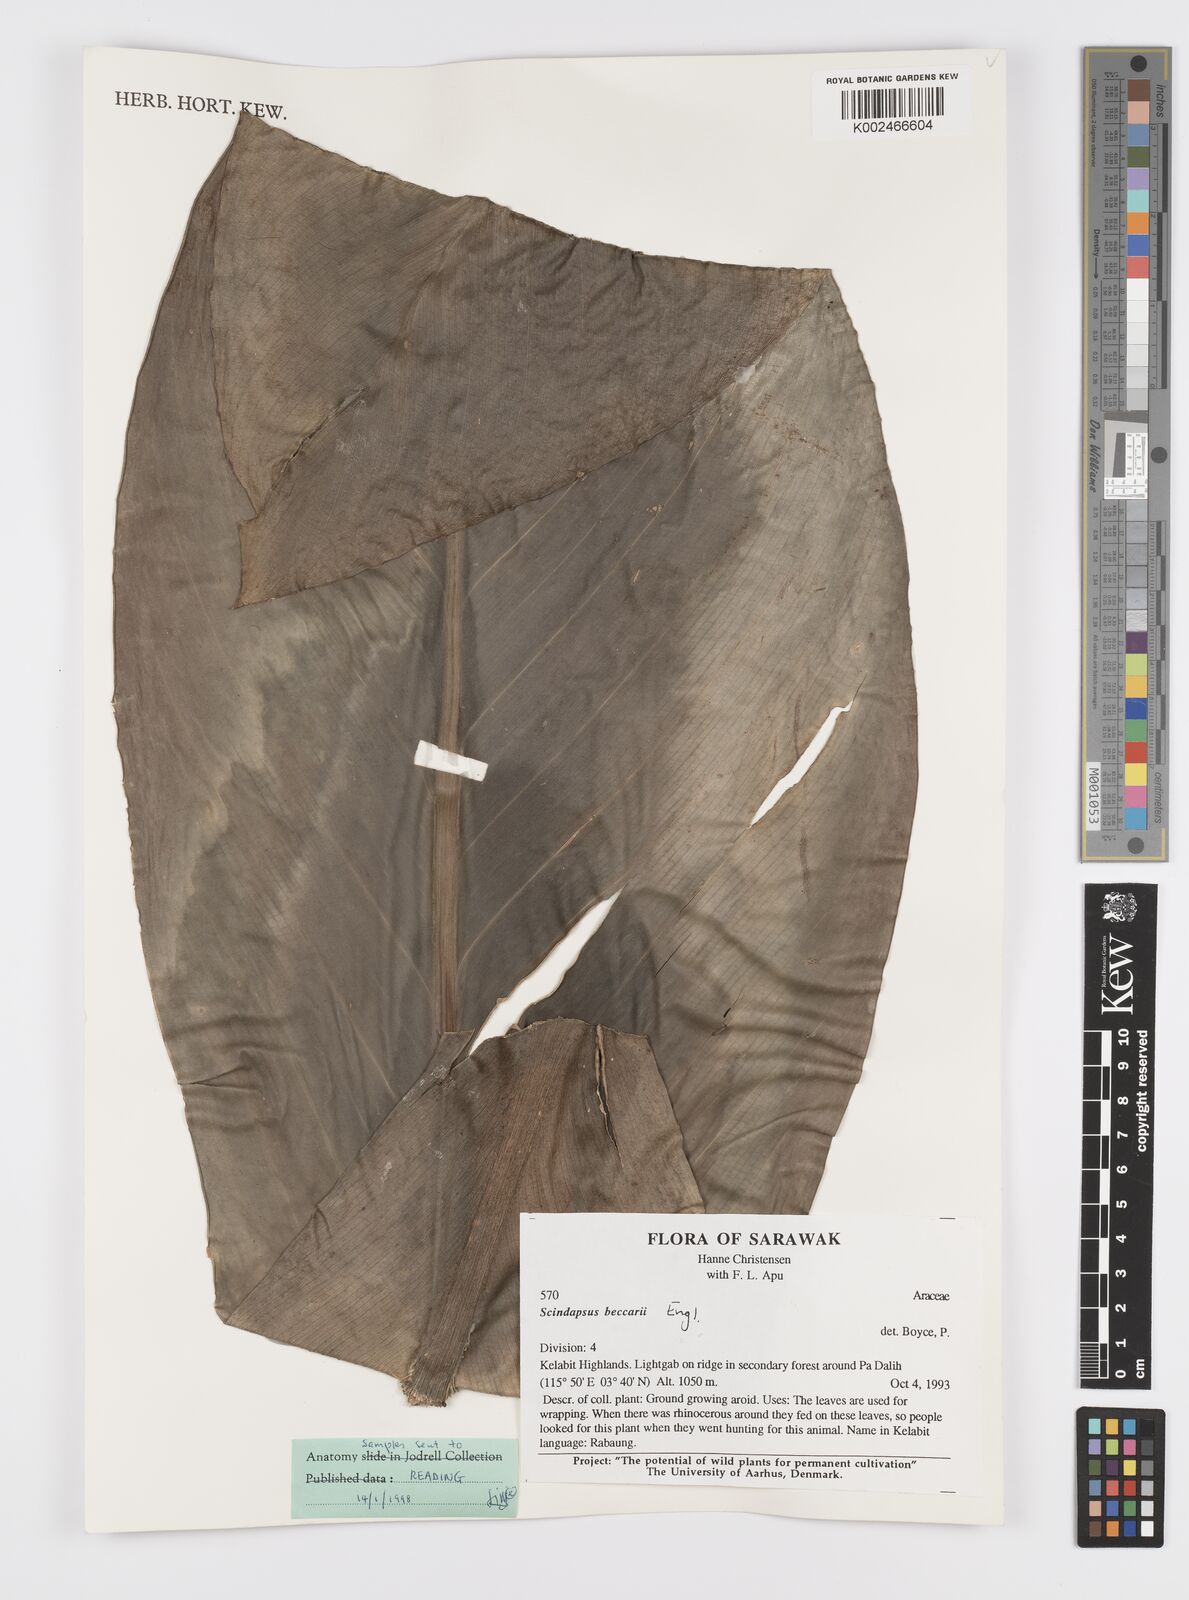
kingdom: Plantae
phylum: Tracheophyta
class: Liliopsida
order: Alismatales
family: Araceae
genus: Scindapsus
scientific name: Scindapsus beccarii
